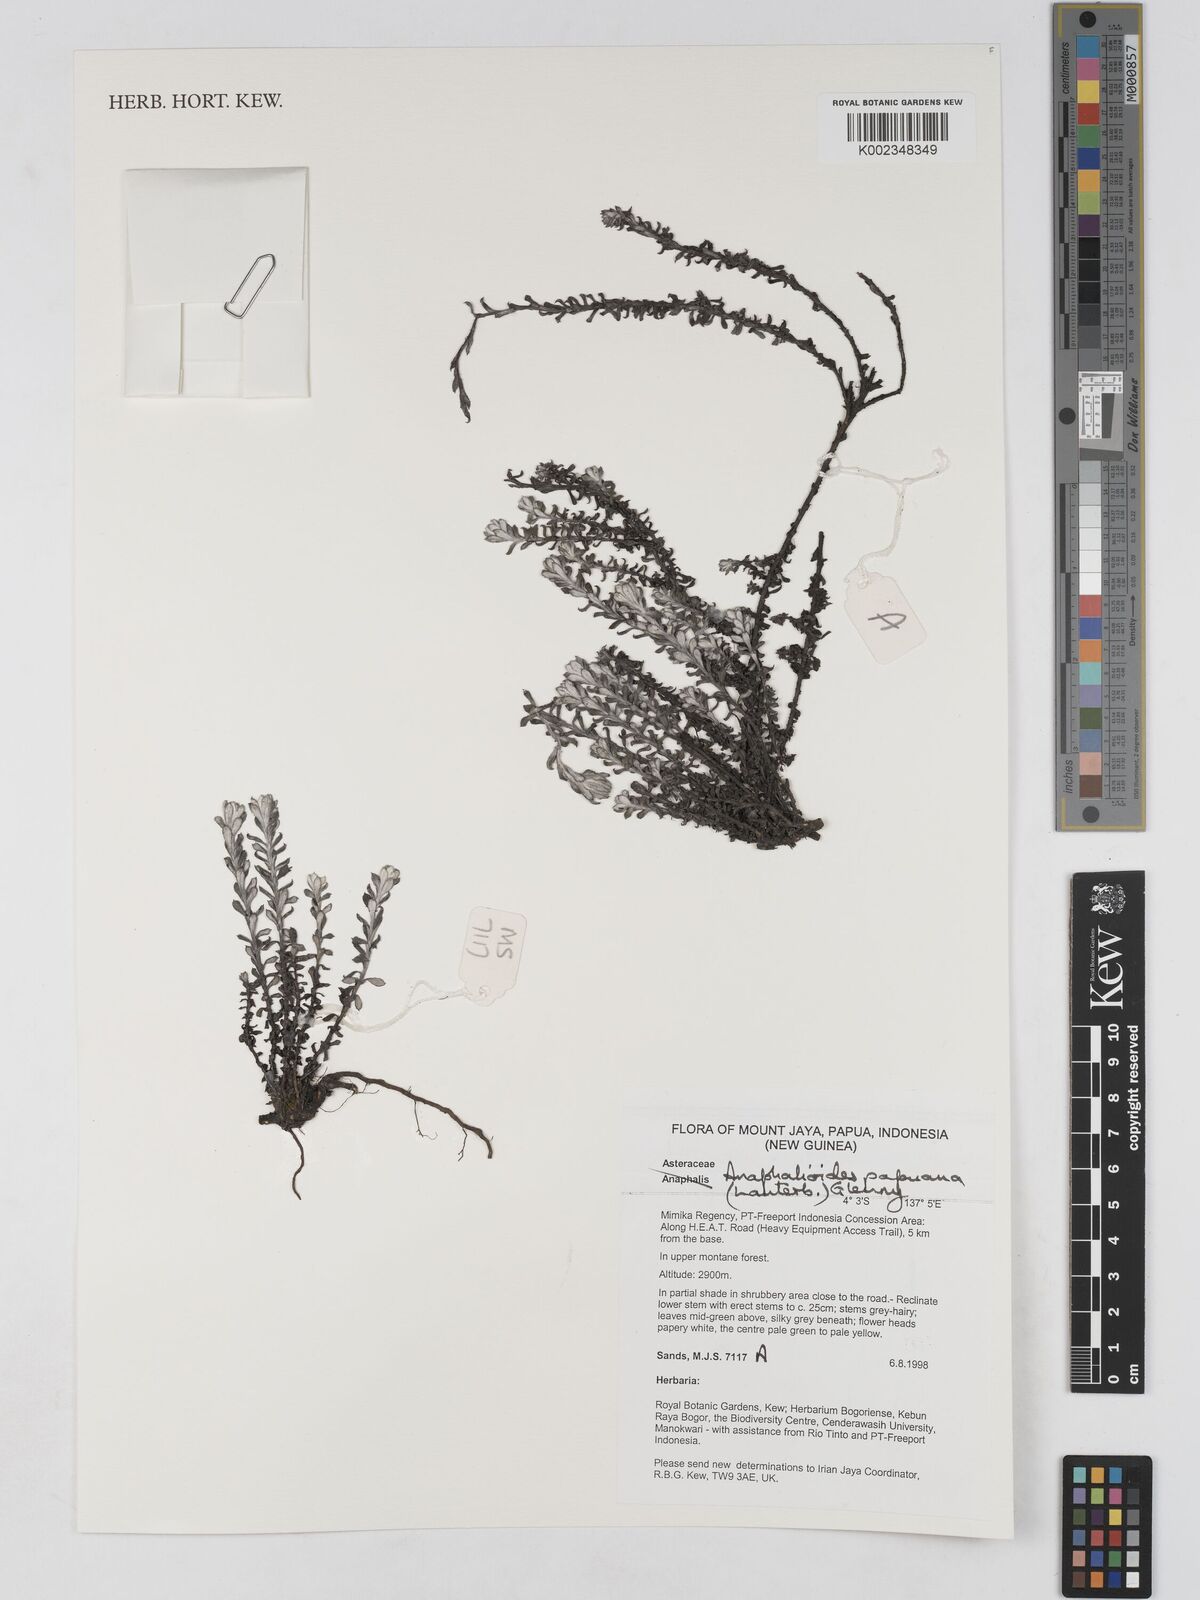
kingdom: Plantae
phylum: Tracheophyta
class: Magnoliopsida
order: Asterales
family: Asteraceae
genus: Anaphalioides
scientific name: Anaphalioides papuana
